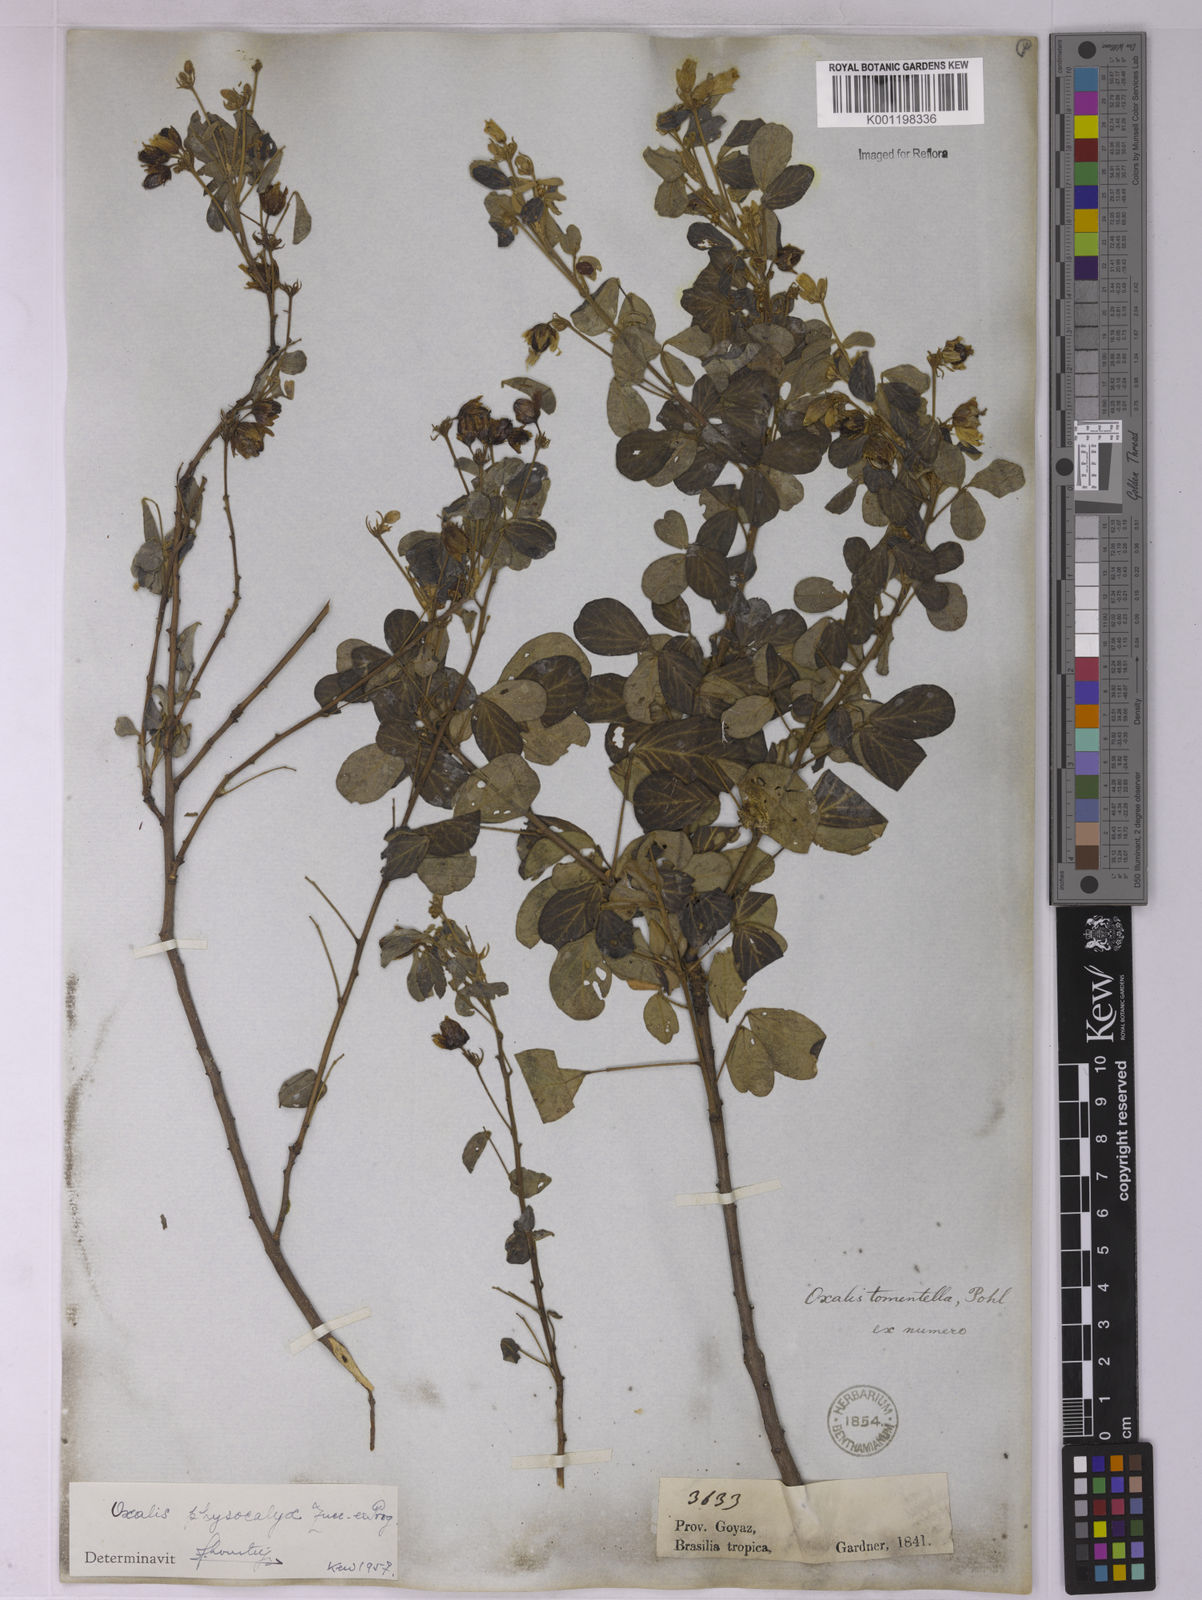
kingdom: Plantae
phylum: Tracheophyta
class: Magnoliopsida
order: Oxalidales
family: Oxalidaceae
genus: Oxalis
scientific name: Oxalis physocalyx
